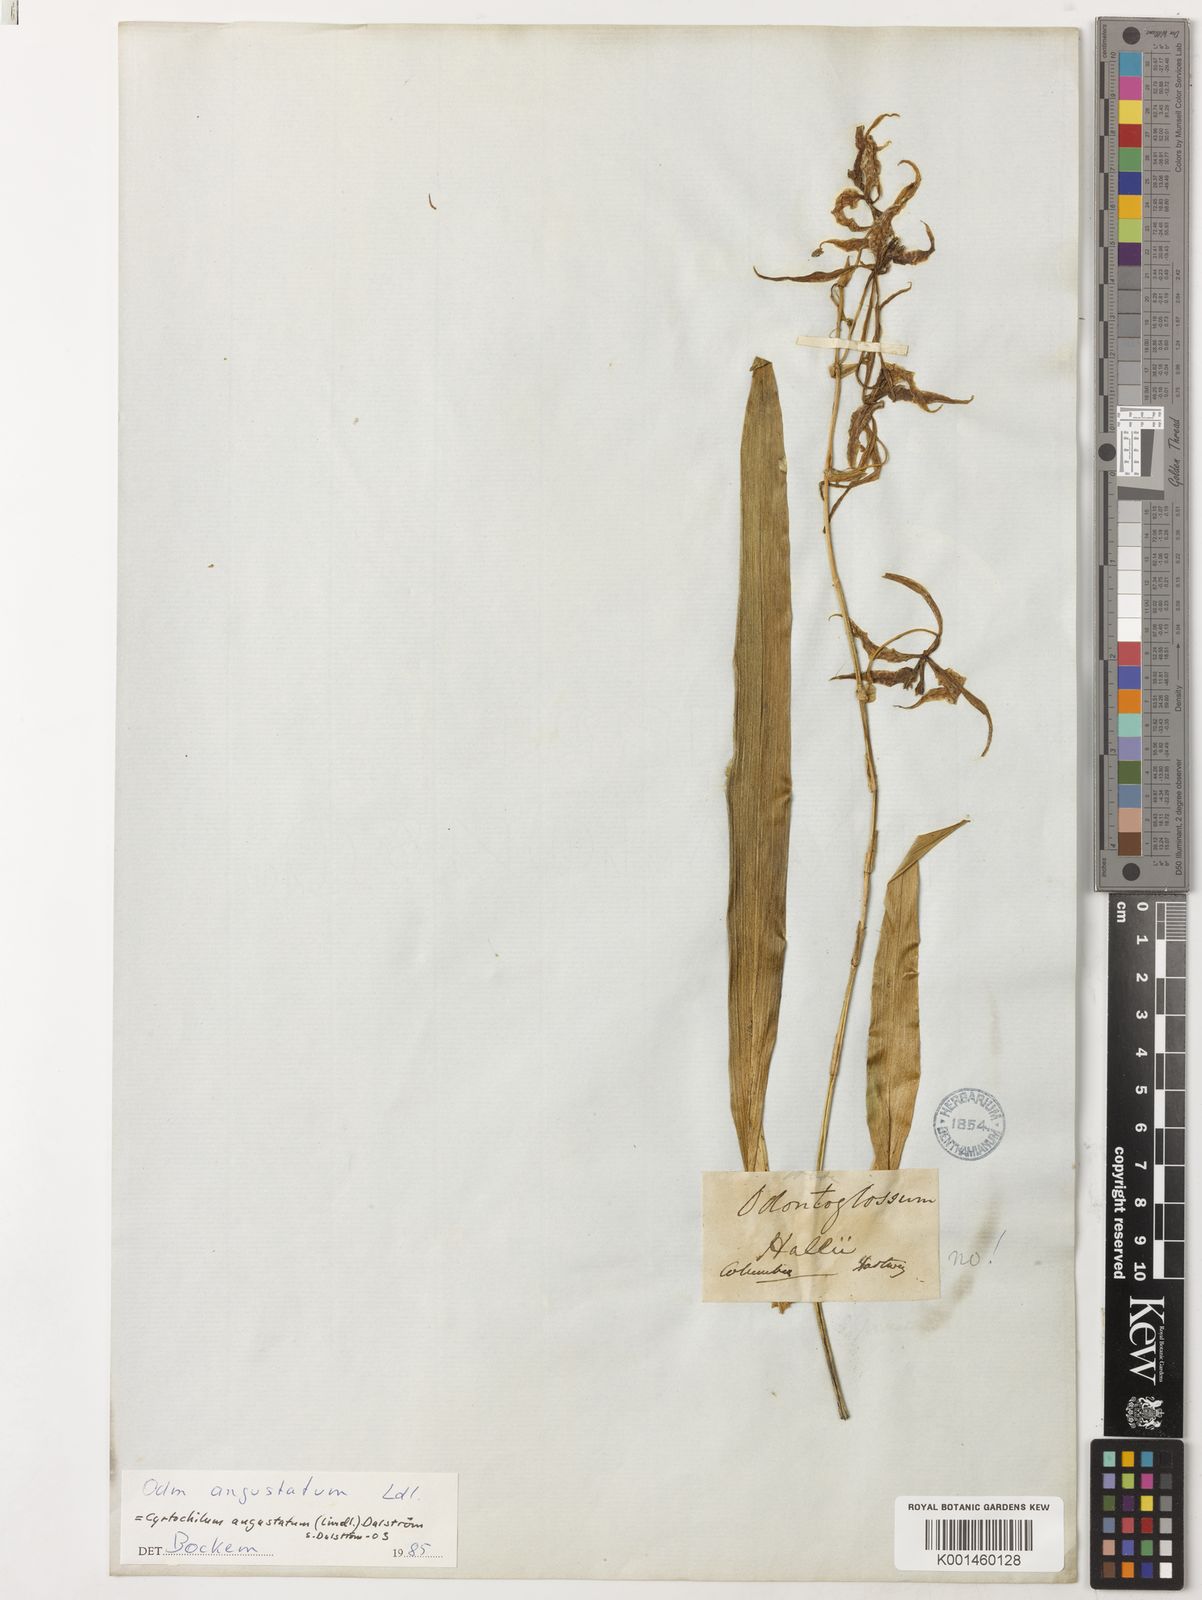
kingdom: Plantae
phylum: Tracheophyta
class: Liliopsida
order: Asparagales
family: Orchidaceae
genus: Cyrtochilum
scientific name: Cyrtochilum
